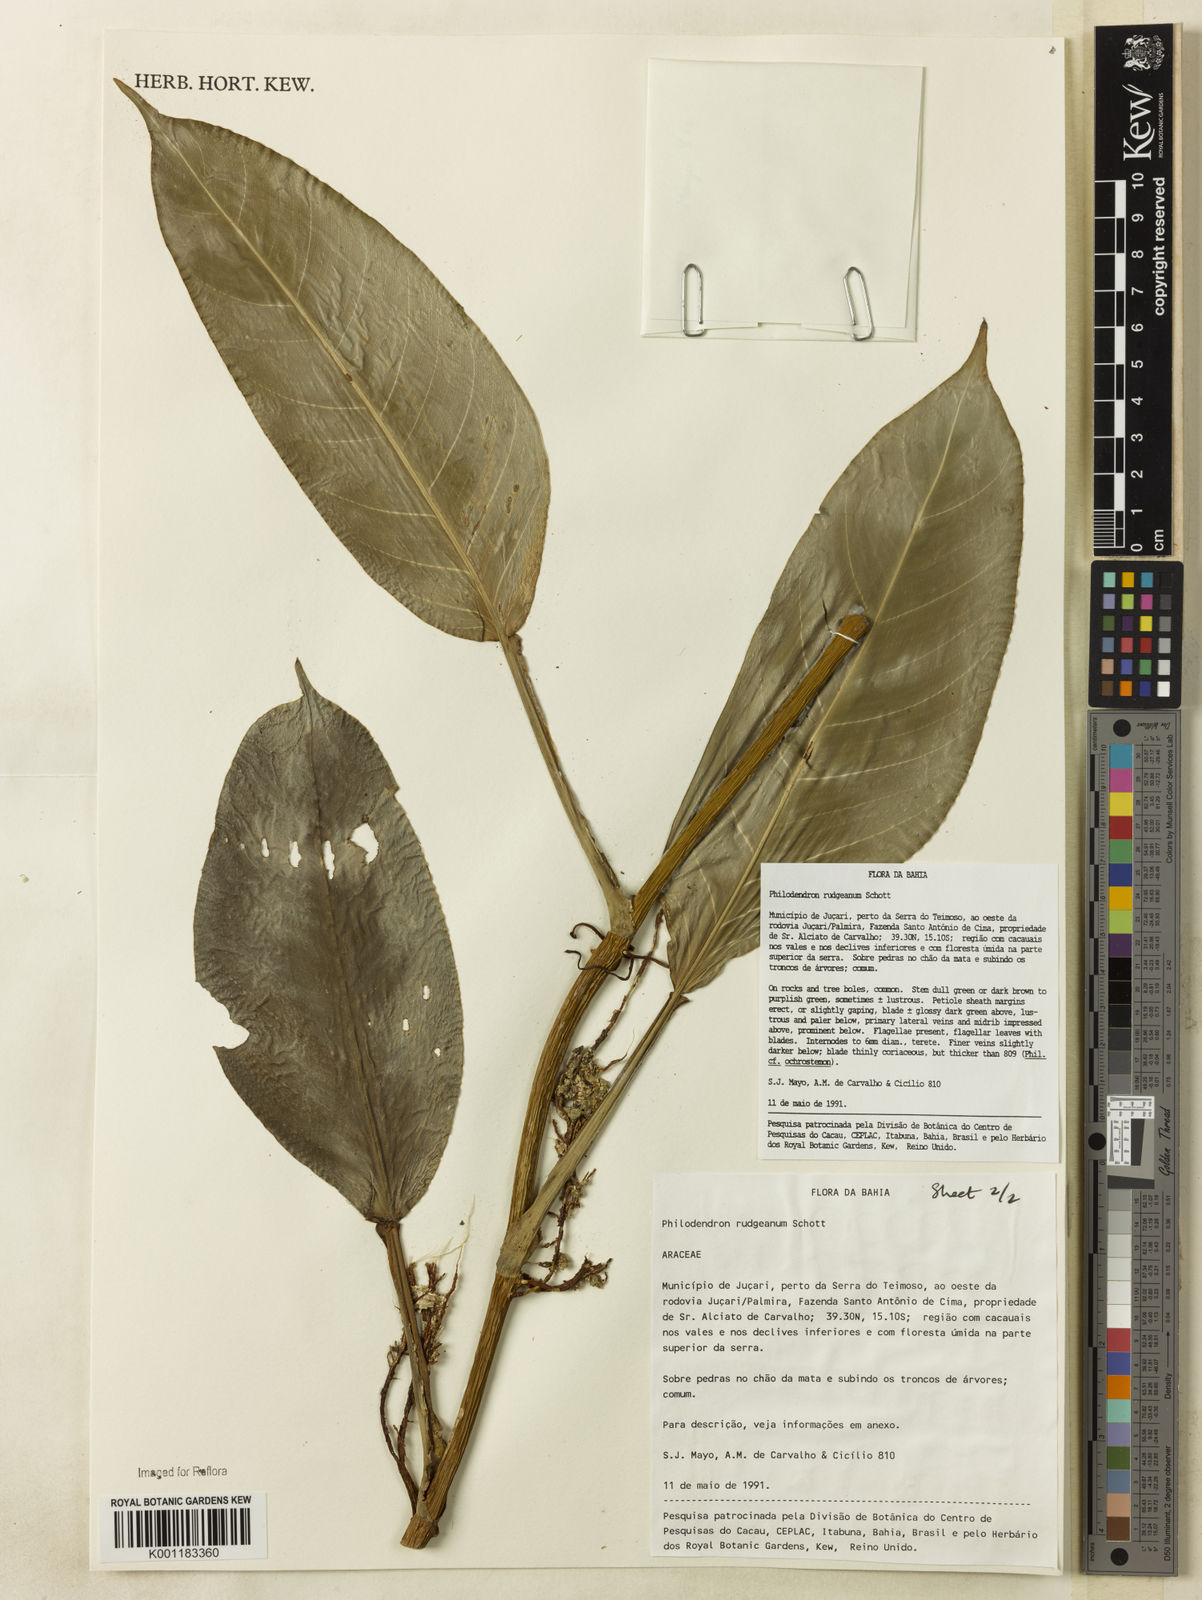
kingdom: Plantae
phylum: Tracheophyta
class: Liliopsida
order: Alismatales
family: Araceae
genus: Philodendron
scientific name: Philodendron rudgeanum
